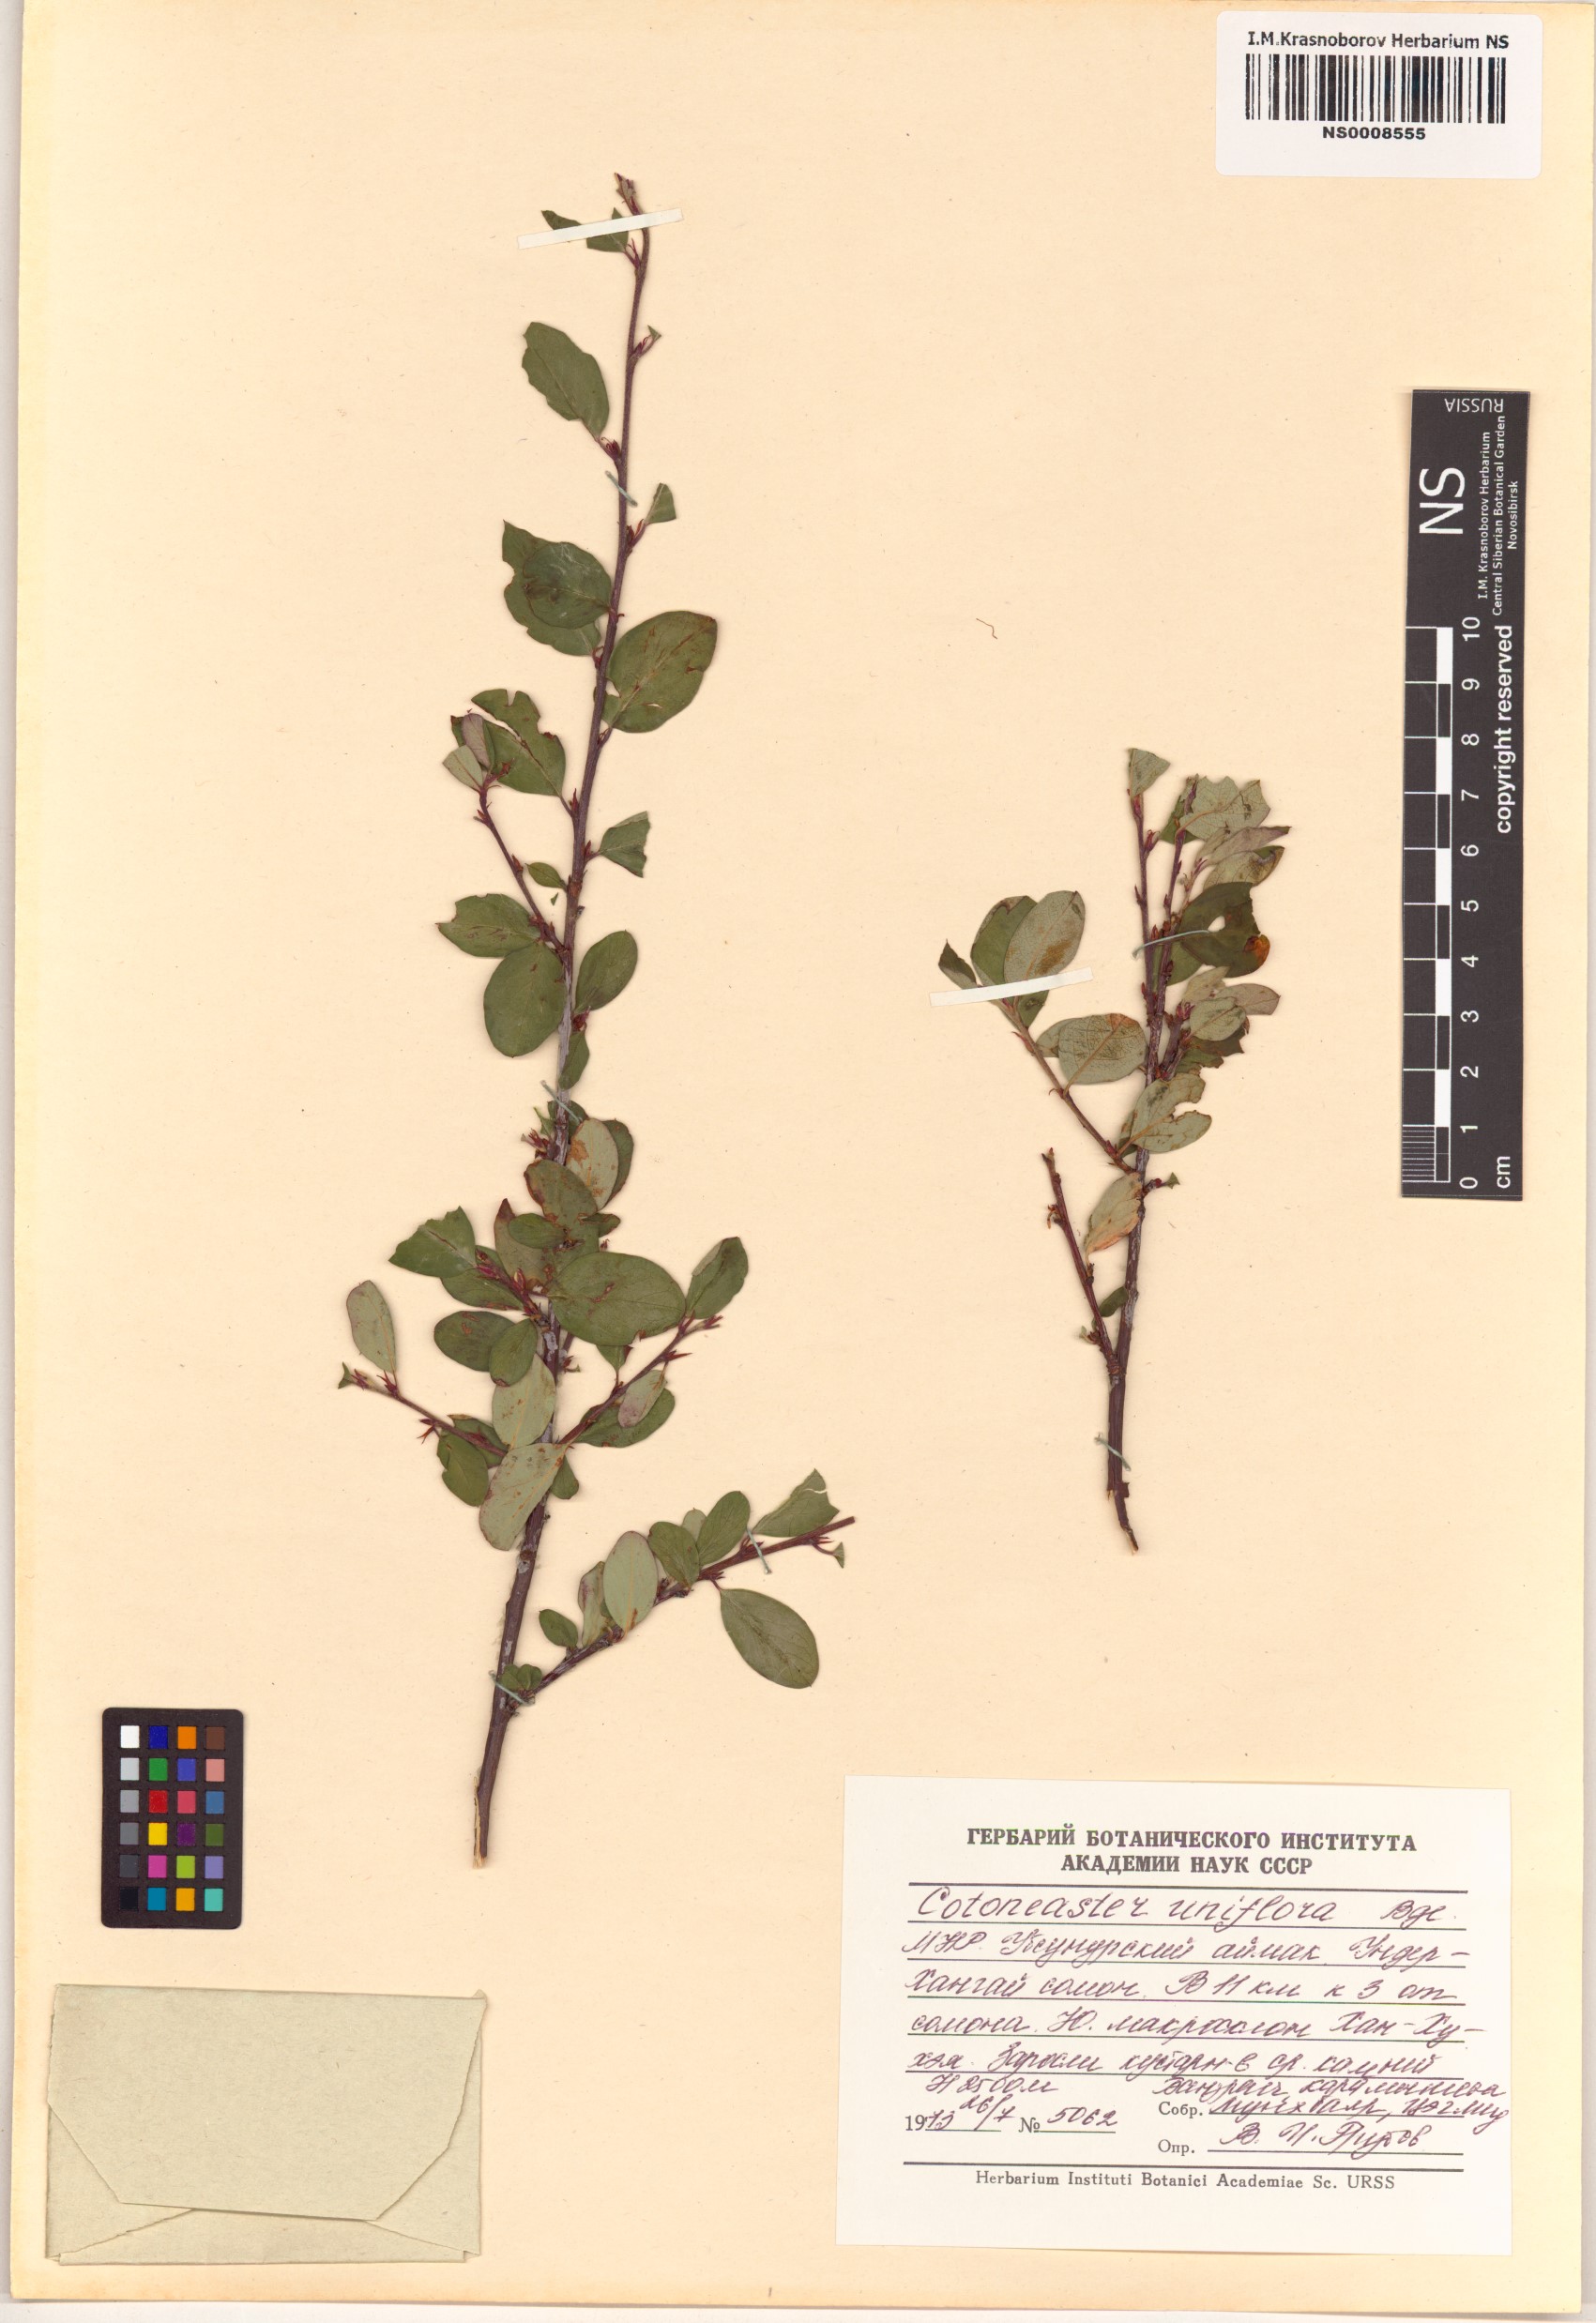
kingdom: Plantae
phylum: Tracheophyta
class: Magnoliopsida
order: Rosales
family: Rosaceae
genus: Cotoneaster
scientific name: Cotoneaster uniflorus
